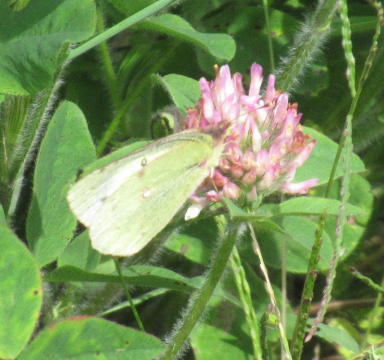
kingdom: Animalia
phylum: Arthropoda
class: Insecta
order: Lepidoptera
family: Pieridae
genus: Colias
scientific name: Colias philodice
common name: Clouded Sulphur
